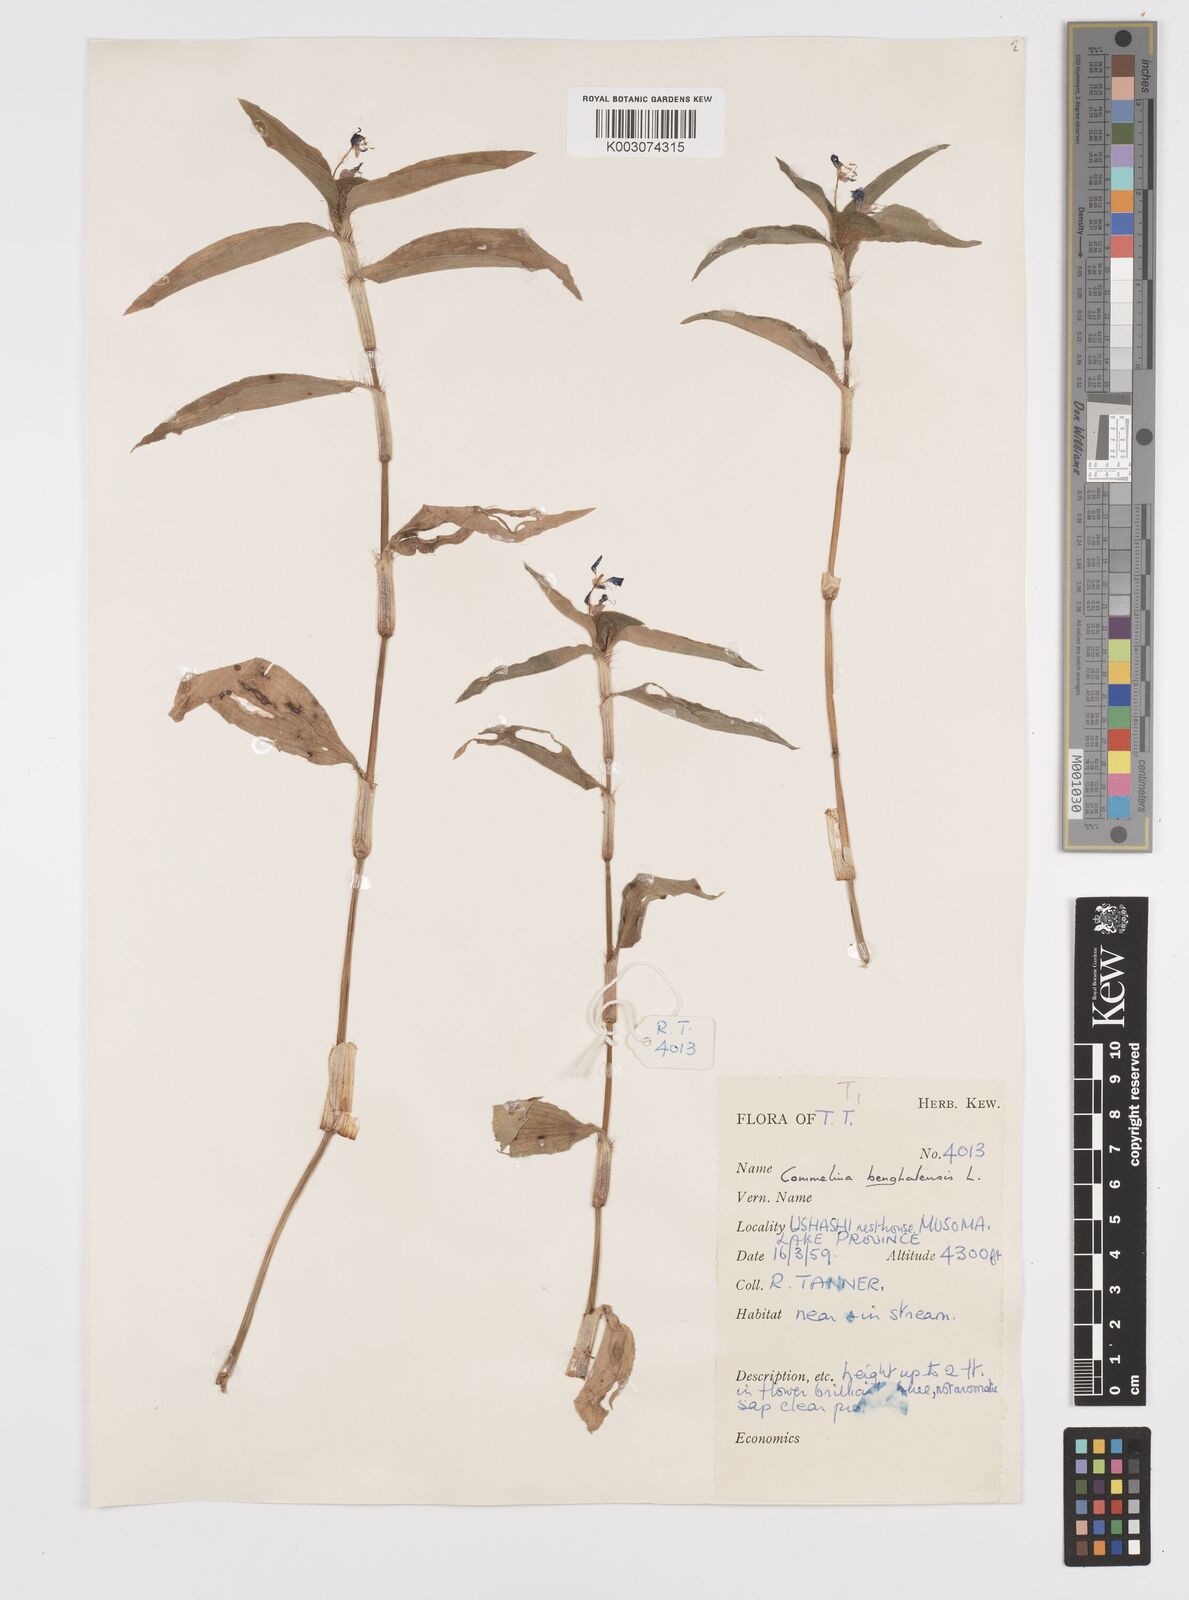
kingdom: Plantae
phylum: Tracheophyta
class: Liliopsida
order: Commelinales
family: Commelinaceae
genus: Commelina
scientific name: Commelina benghalensis
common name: Jio
